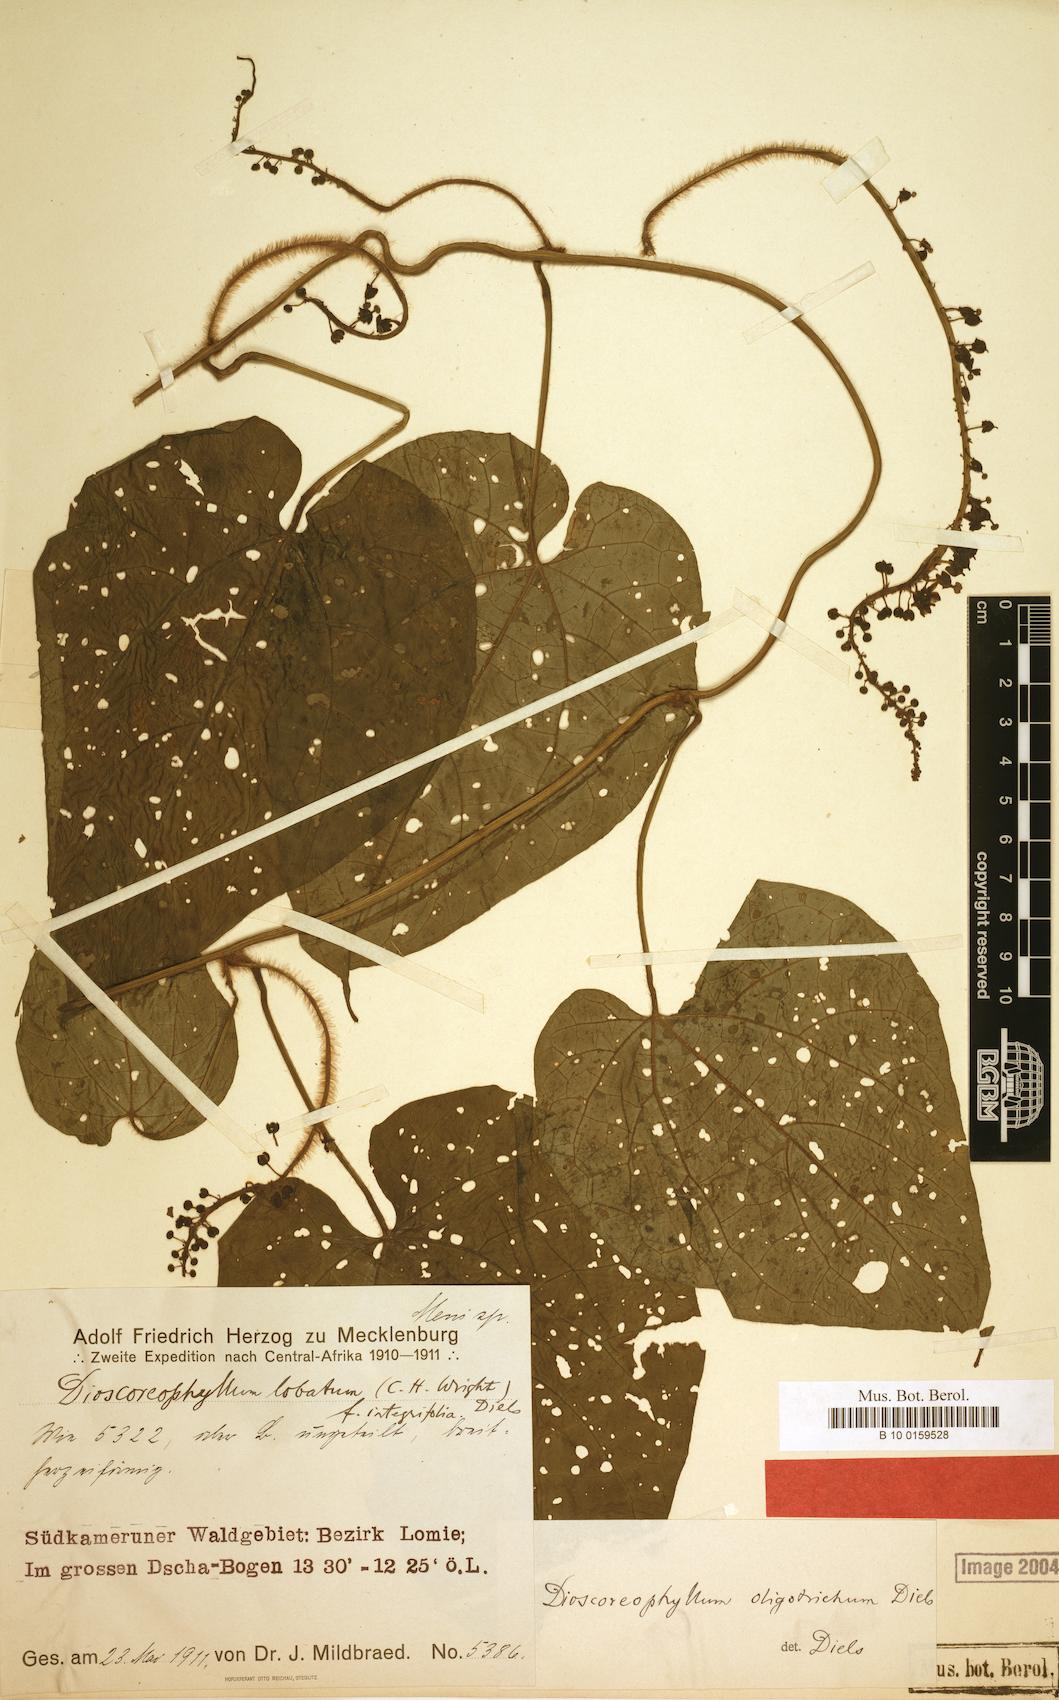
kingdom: Plantae
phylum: Tracheophyta
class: Magnoliopsida
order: Ranunculales
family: Menispermaceae
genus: Dioscoreophyllum
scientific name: Dioscoreophyllum volkensii
